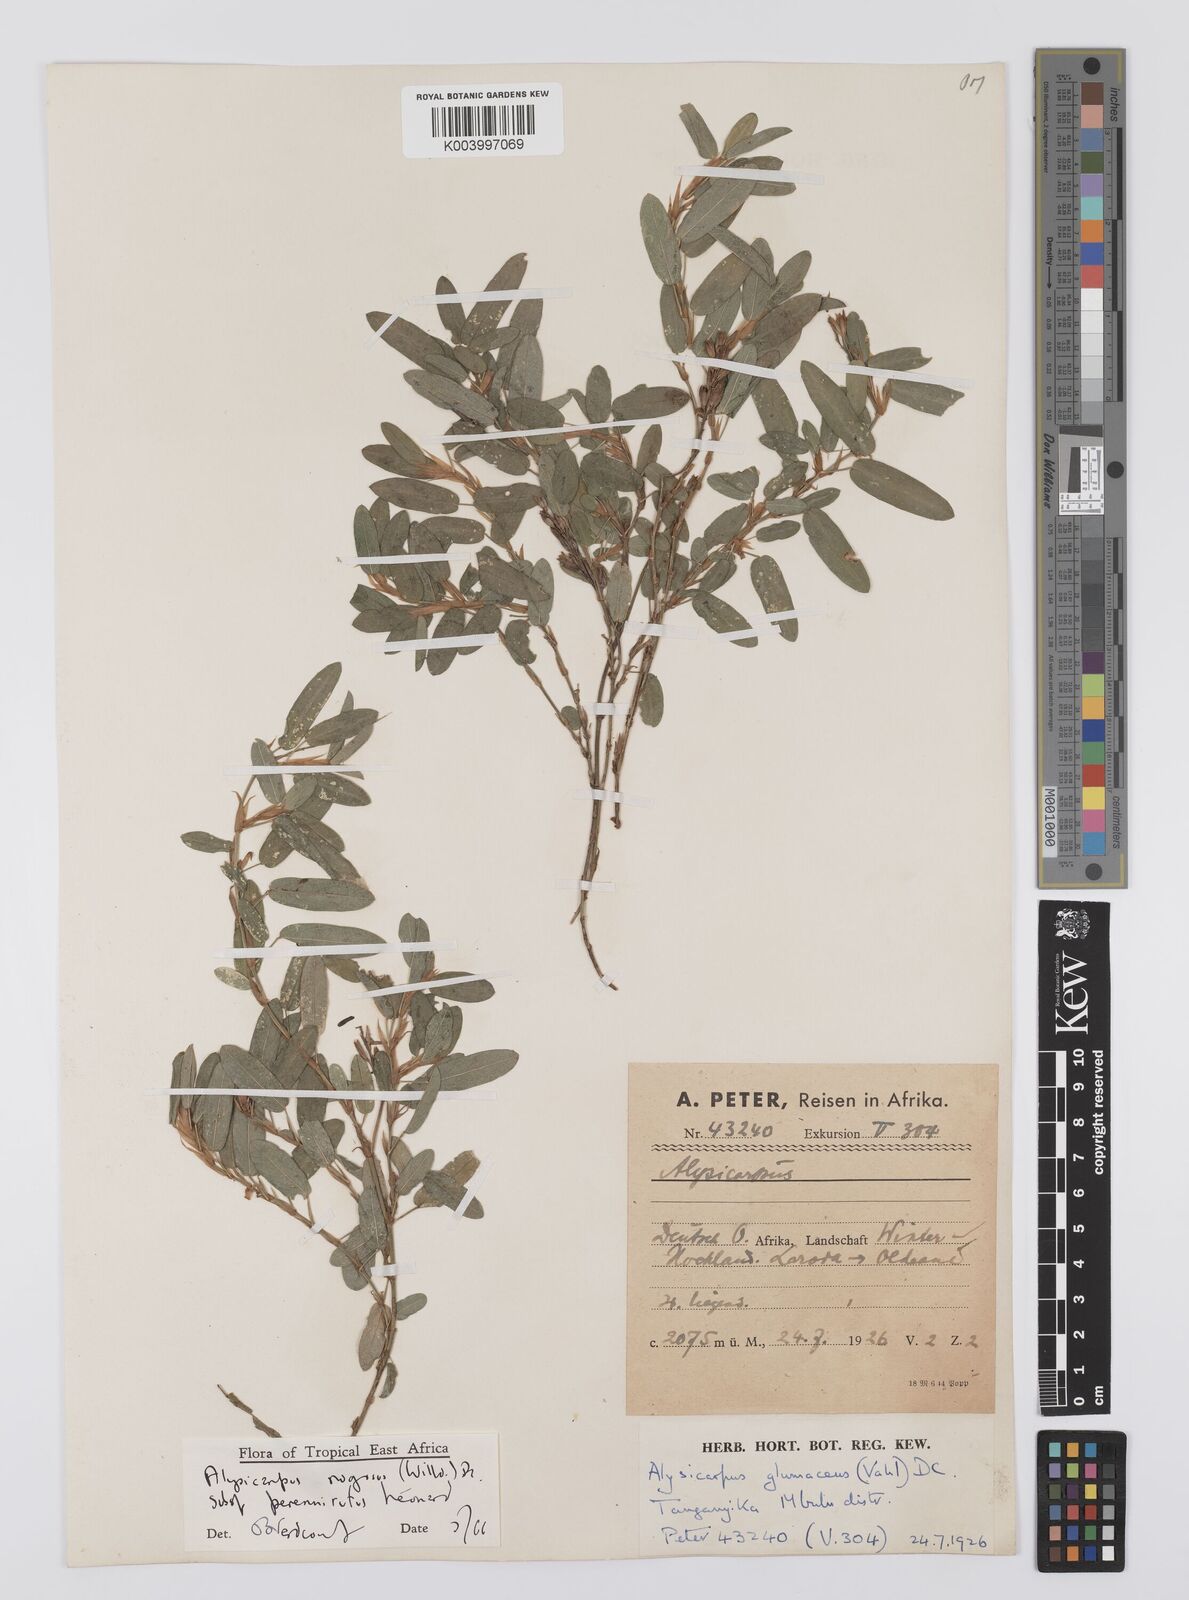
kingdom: Plantae
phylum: Tracheophyta
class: Magnoliopsida
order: Fabales
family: Fabaceae
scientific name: Fabaceae
